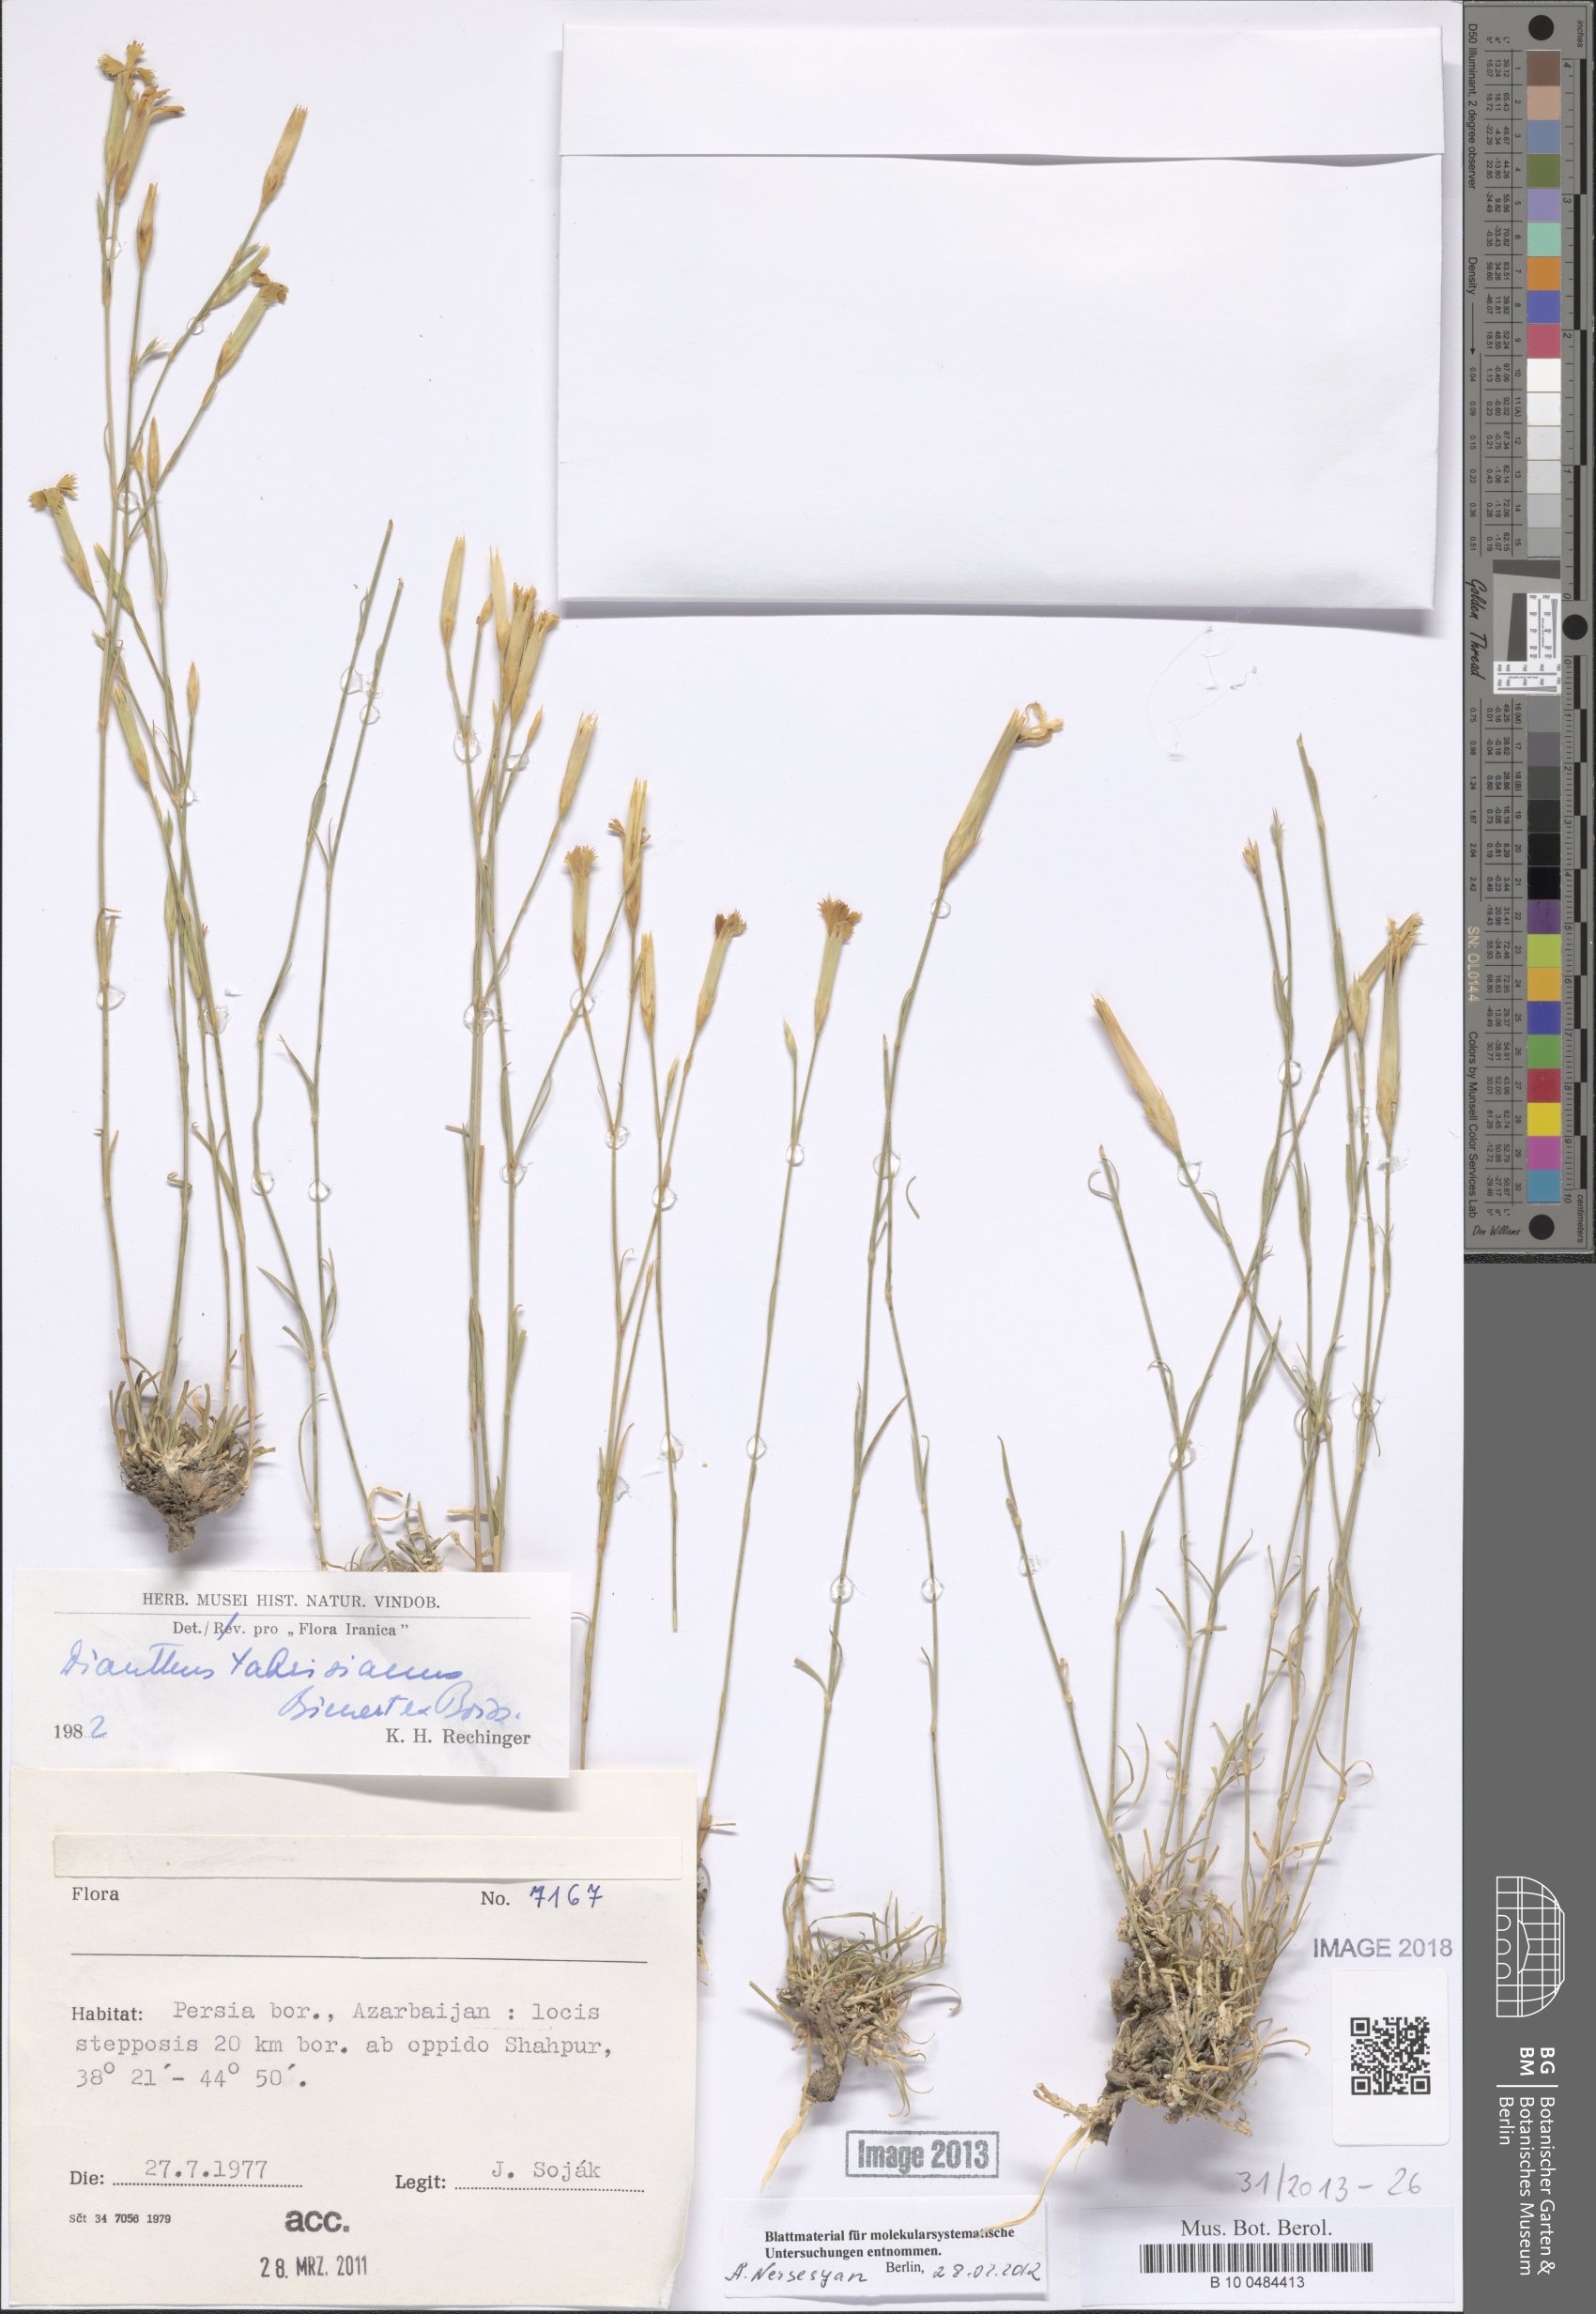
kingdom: Plantae
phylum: Tracheophyta
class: Magnoliopsida
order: Caryophyllales
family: Caryophyllaceae
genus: Dianthus
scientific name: Dianthus tabrisianus
